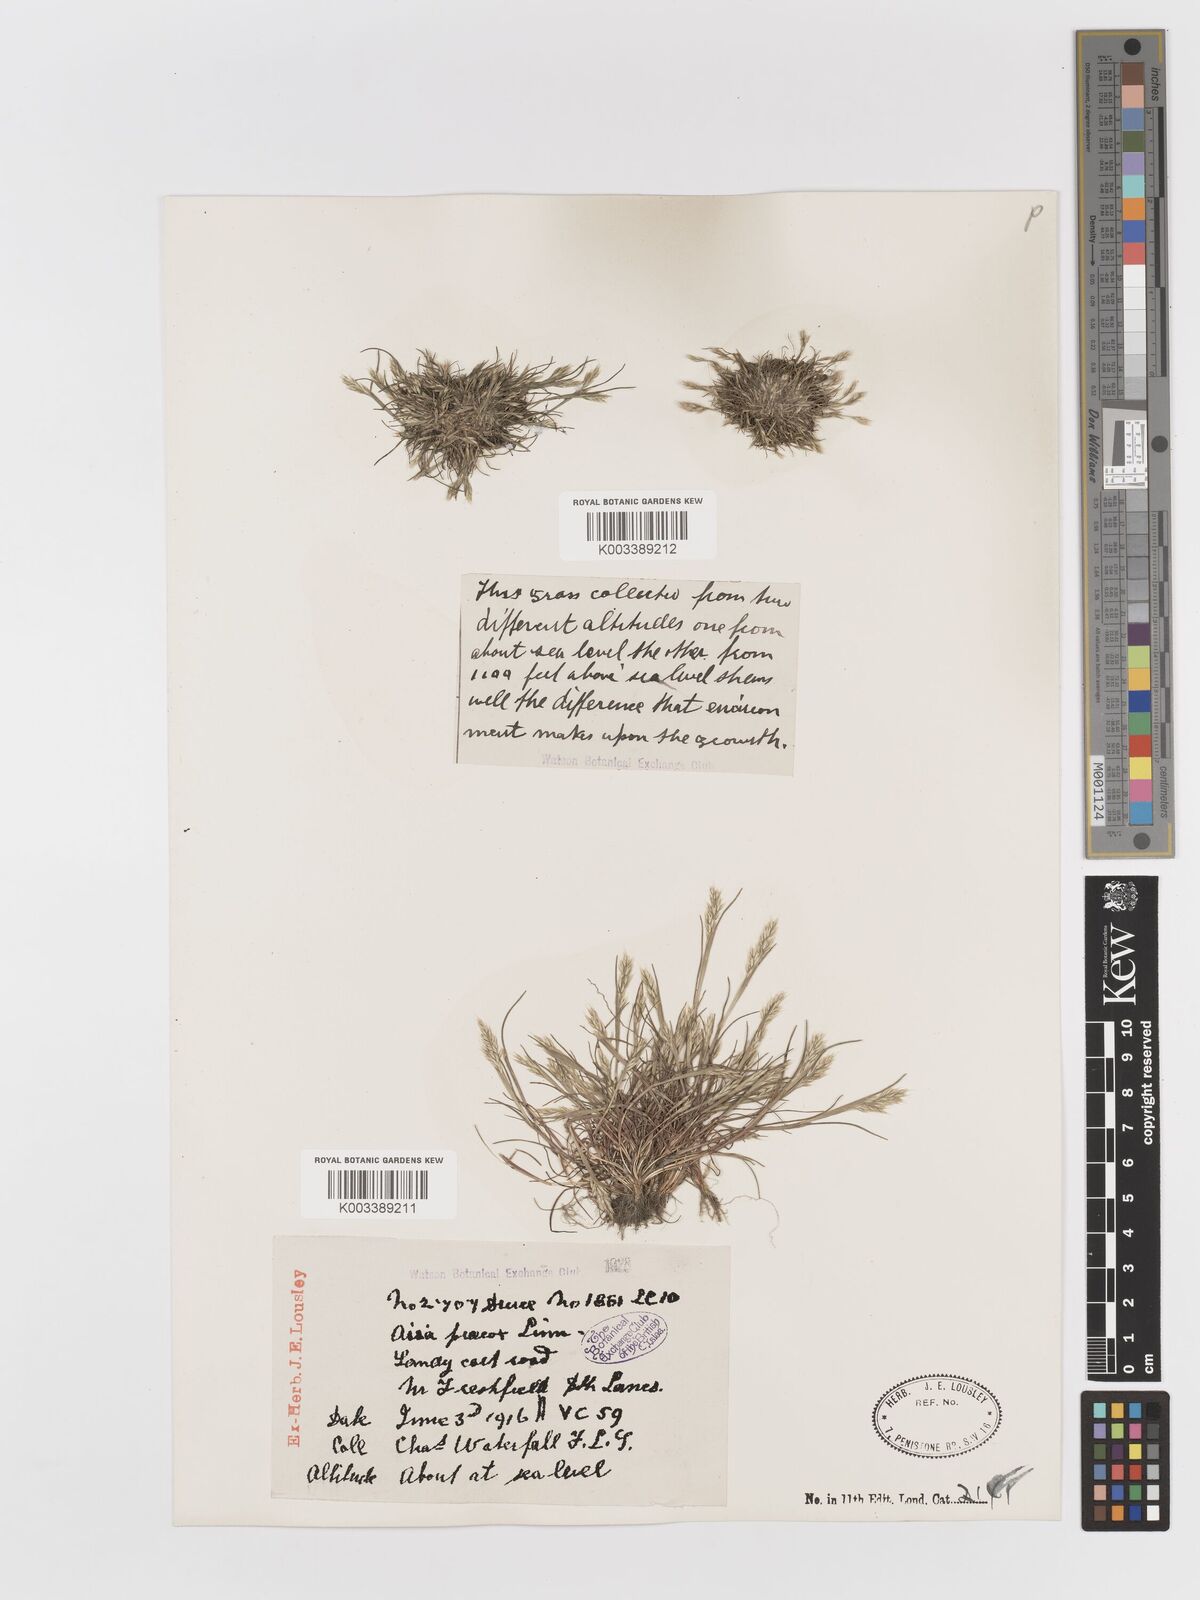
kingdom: Plantae
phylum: Tracheophyta
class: Liliopsida
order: Poales
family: Poaceae
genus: Aira
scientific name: Aira praecox
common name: Early hair-grass
